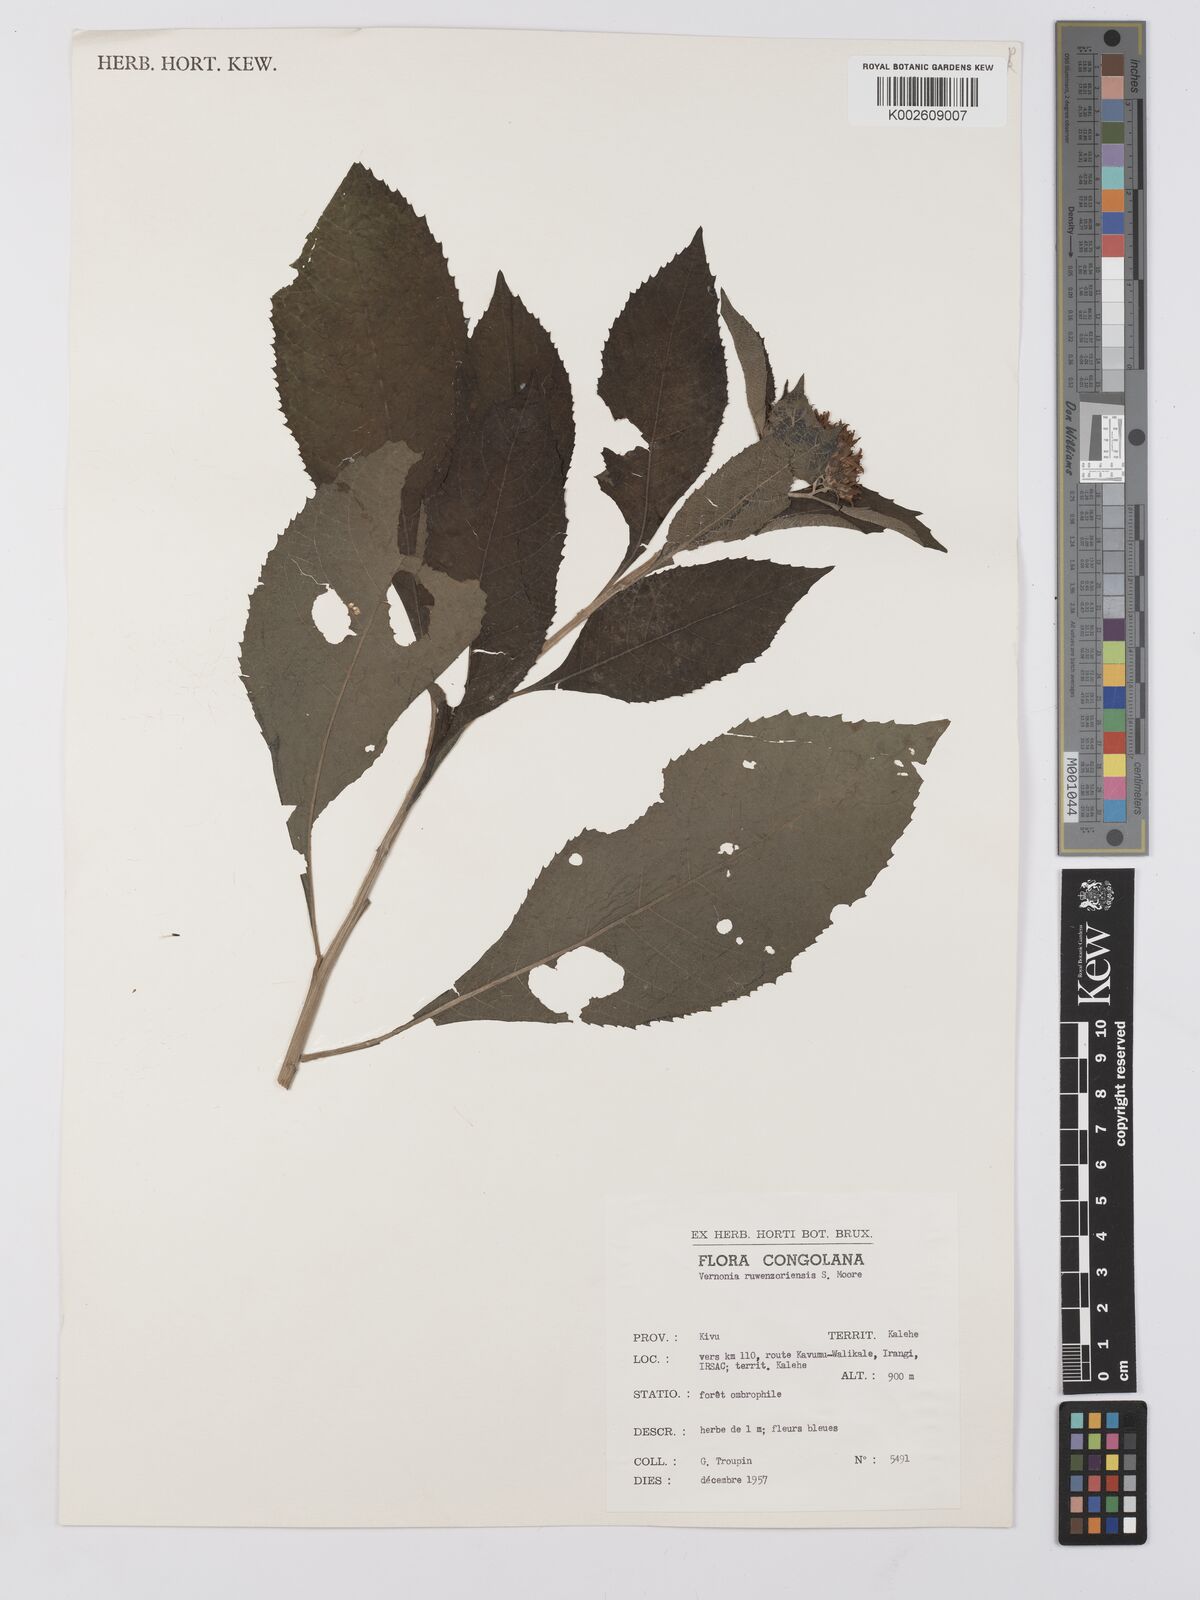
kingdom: Plantae
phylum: Tracheophyta
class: Magnoliopsida
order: Asterales
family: Asteraceae
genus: Vernonia
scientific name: Vernonia ruwenzoriensis
